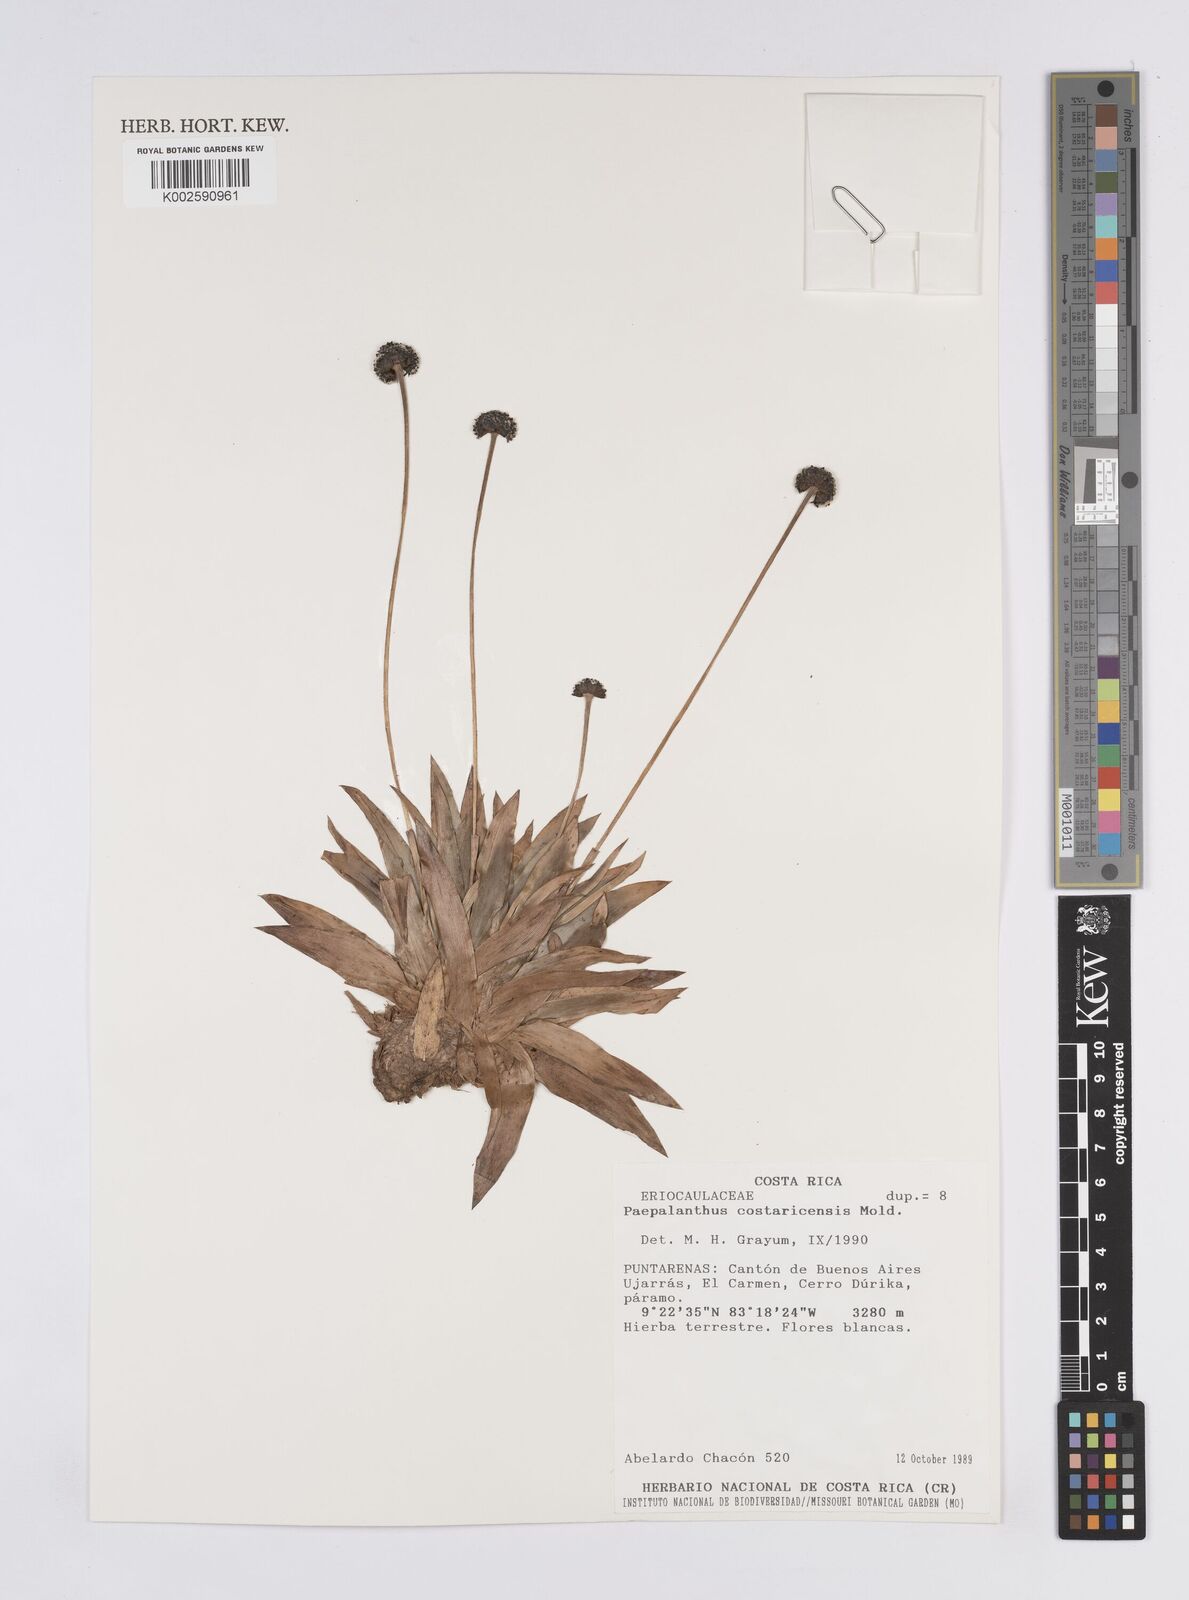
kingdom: Plantae
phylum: Tracheophyta
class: Liliopsida
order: Poales
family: Eriocaulaceae
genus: Paepalanthus
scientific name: Paepalanthus costaricensis
